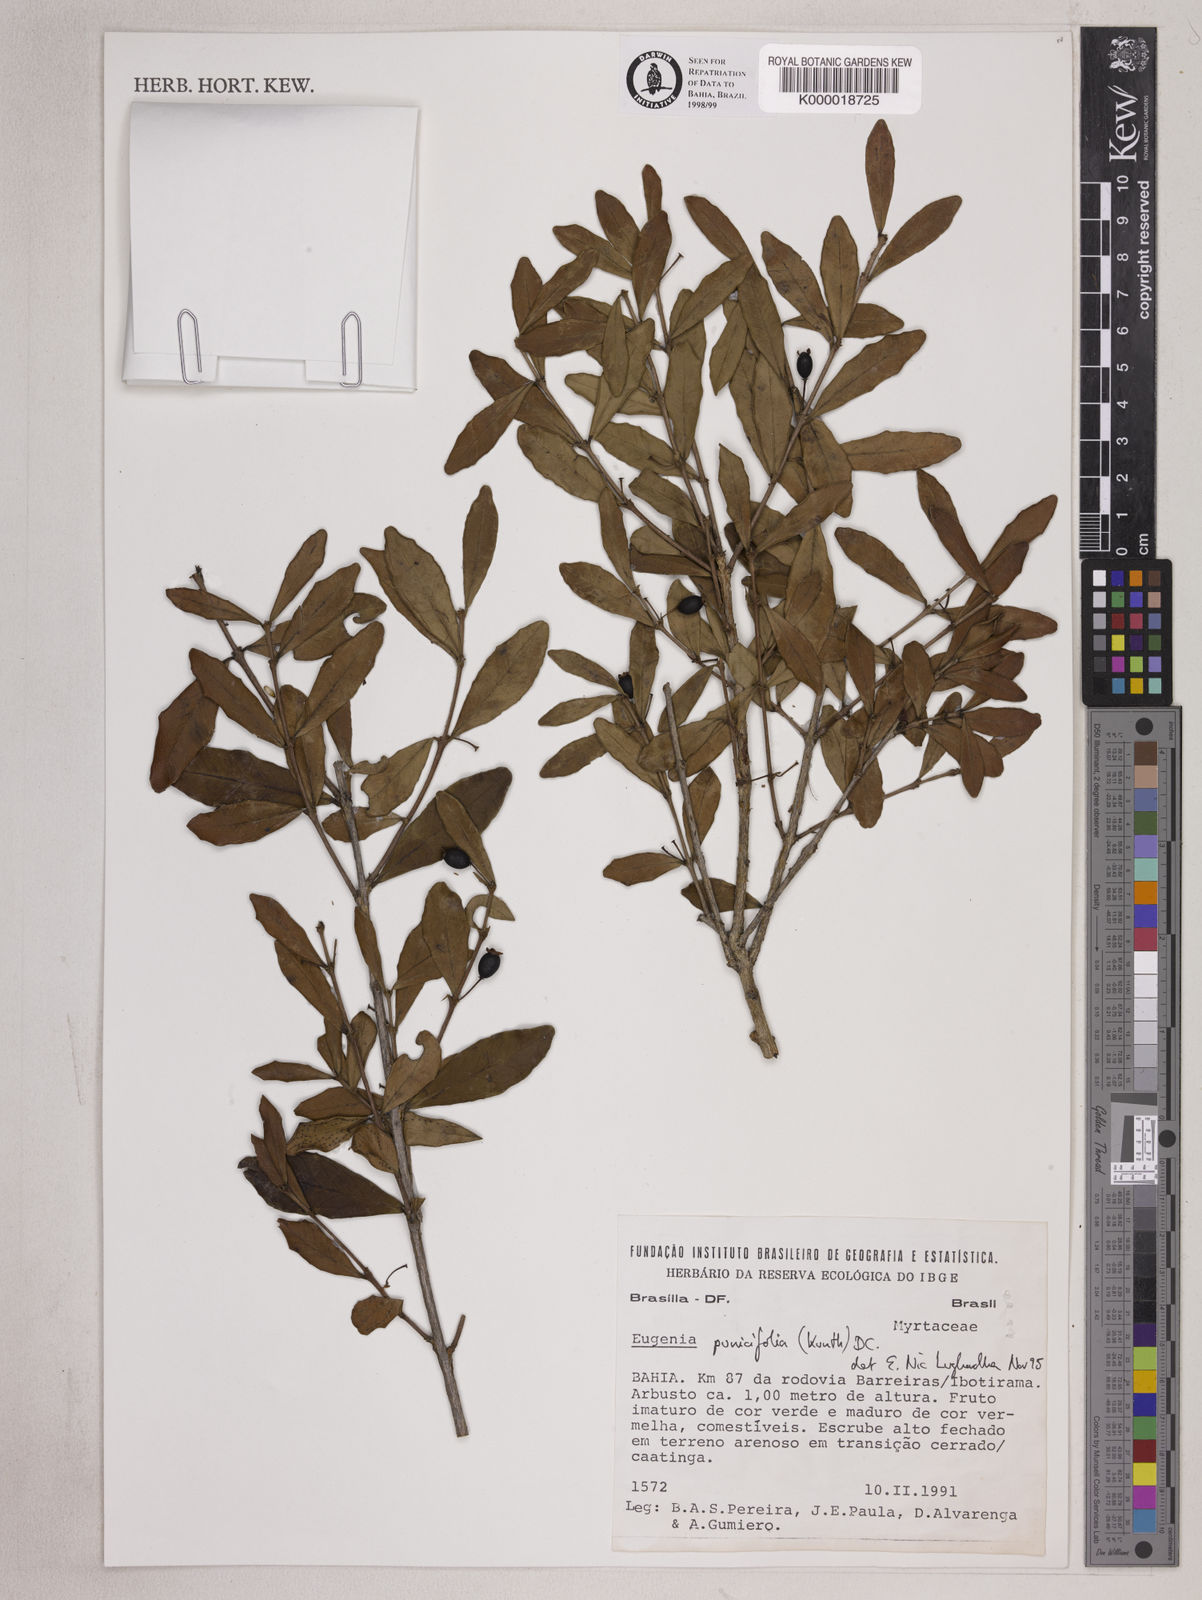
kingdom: Plantae
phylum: Tracheophyta
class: Magnoliopsida
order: Myrtales
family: Myrtaceae
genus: Eugenia
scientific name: Eugenia punicifolia
